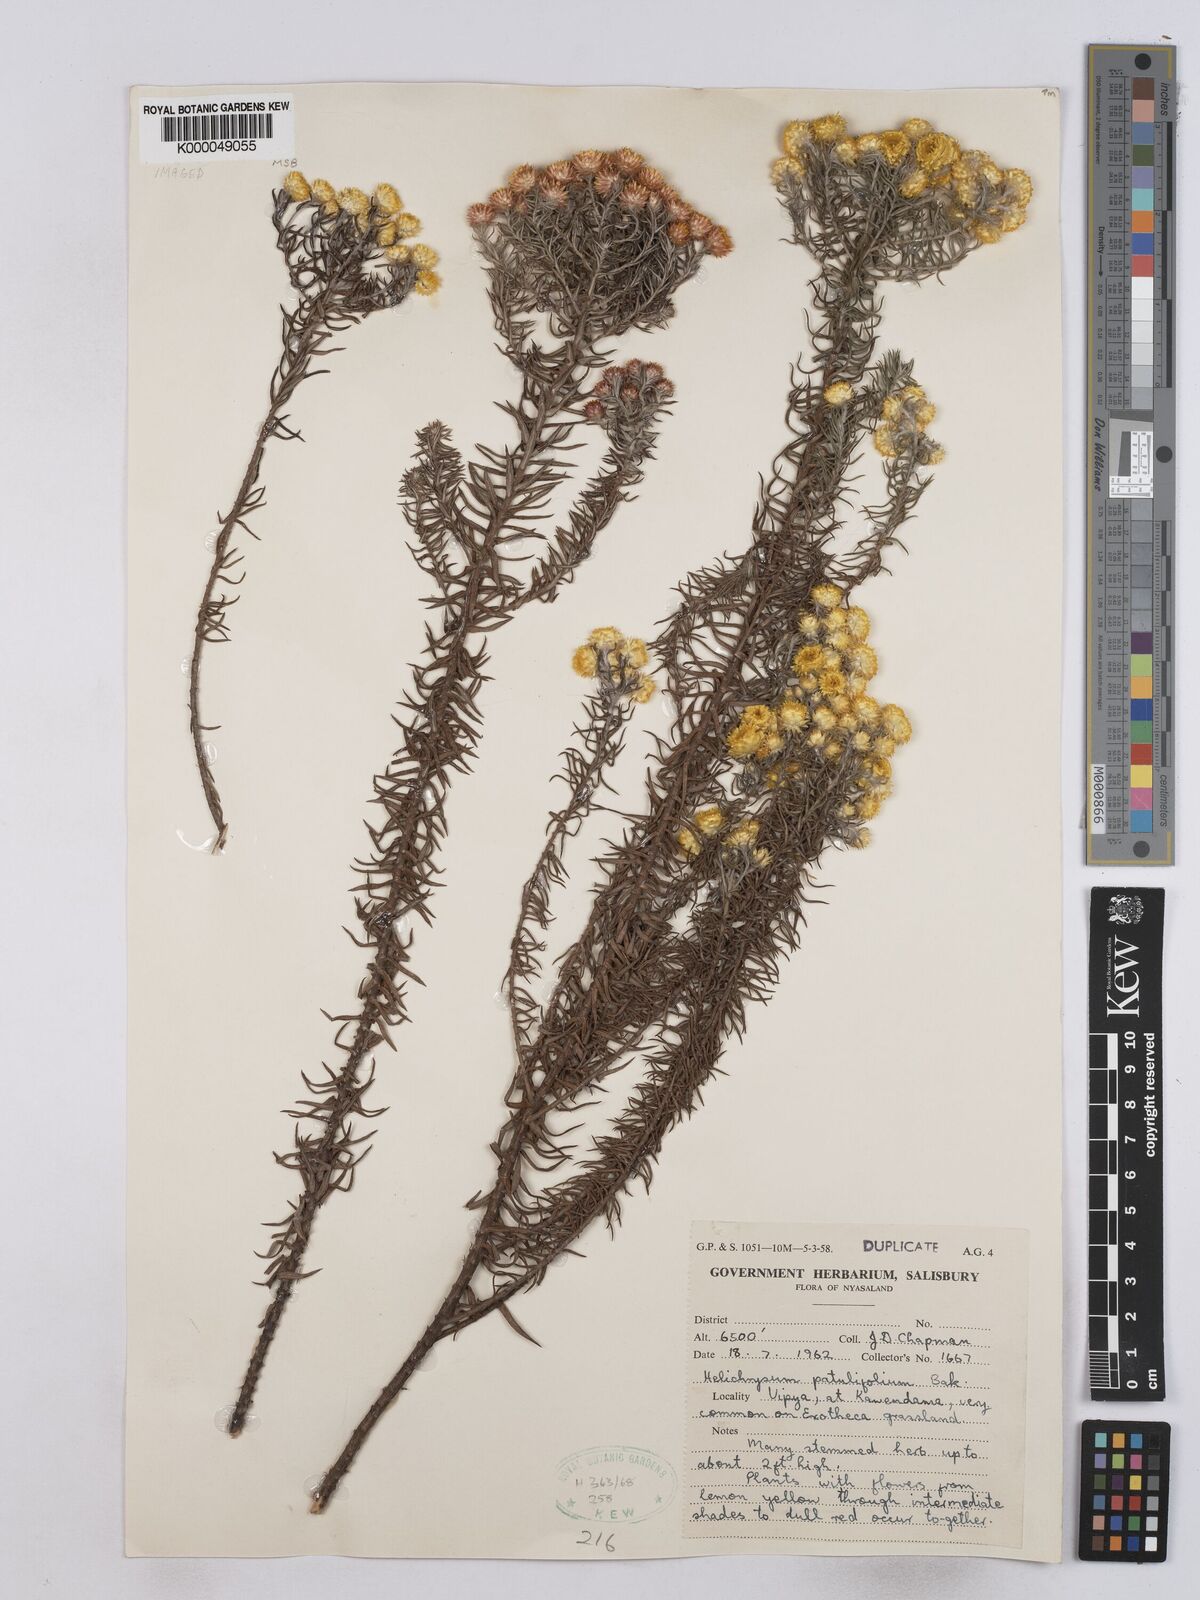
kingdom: Plantae
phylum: Tracheophyta
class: Magnoliopsida
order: Asterales
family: Asteraceae
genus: Helichrysum
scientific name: Helichrysum patulifolium
